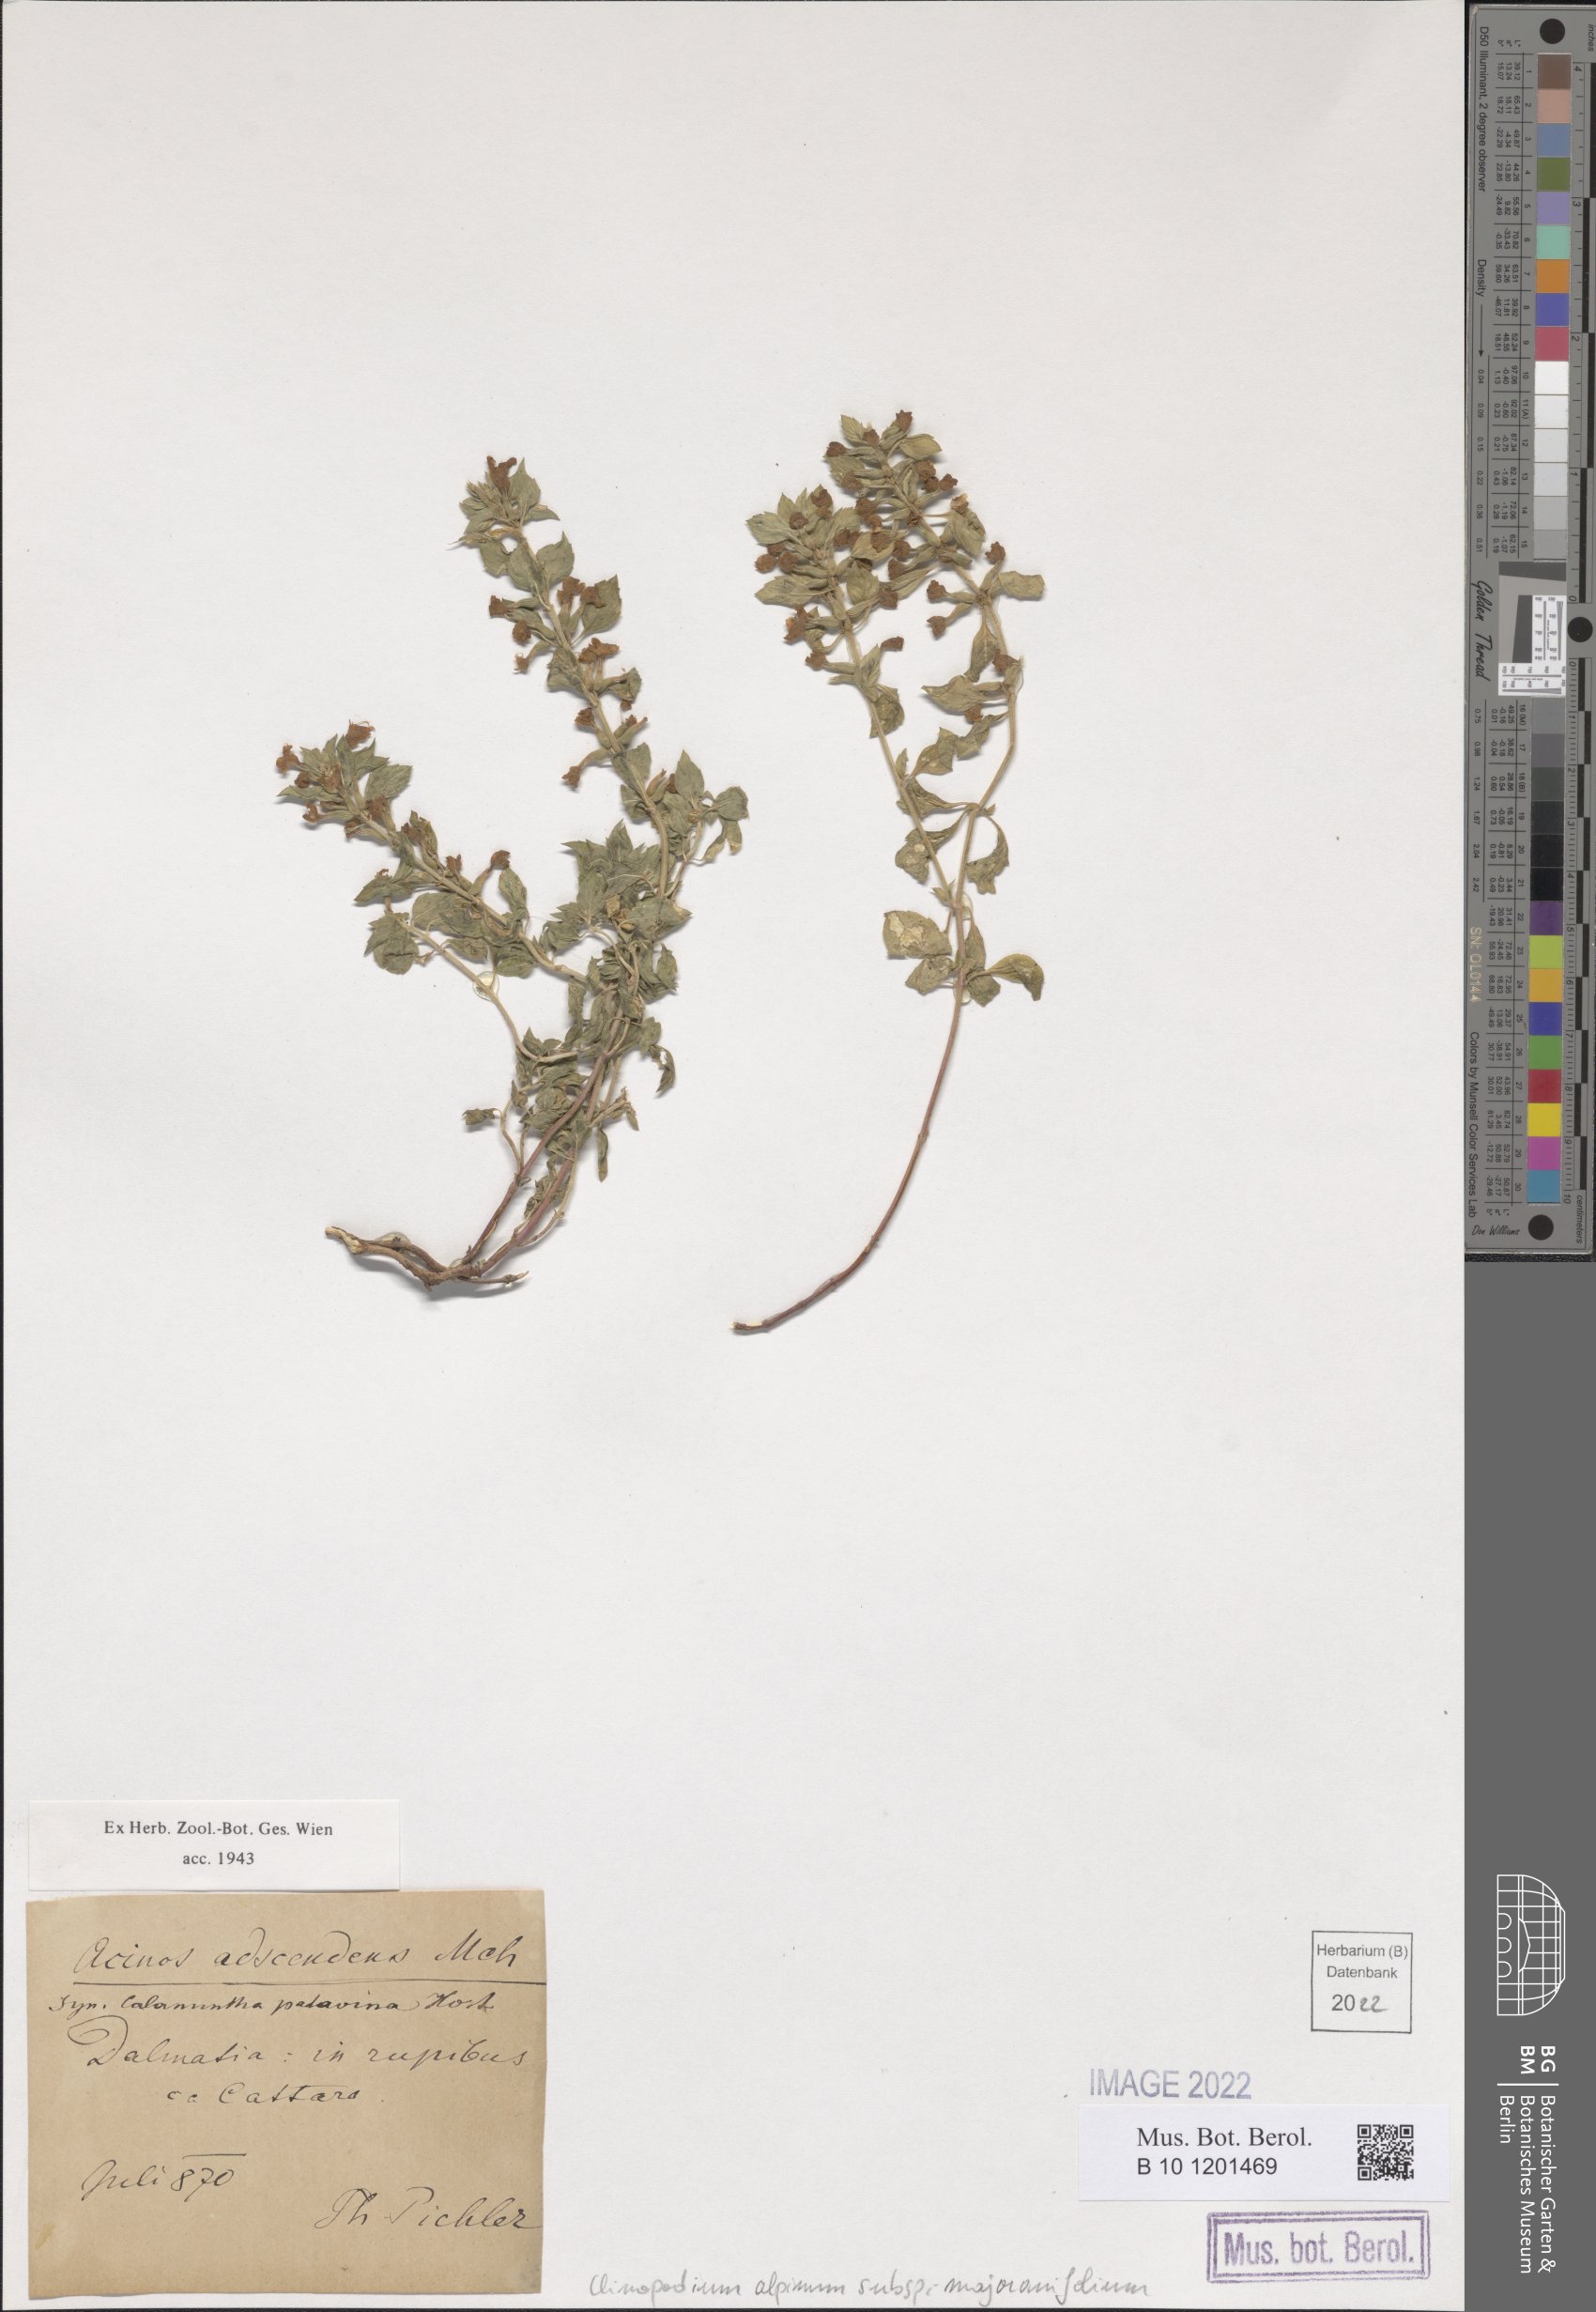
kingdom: Plantae
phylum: Tracheophyta
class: Magnoliopsida
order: Lamiales
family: Lamiaceae
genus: Clinopodium
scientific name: Clinopodium alpinum
